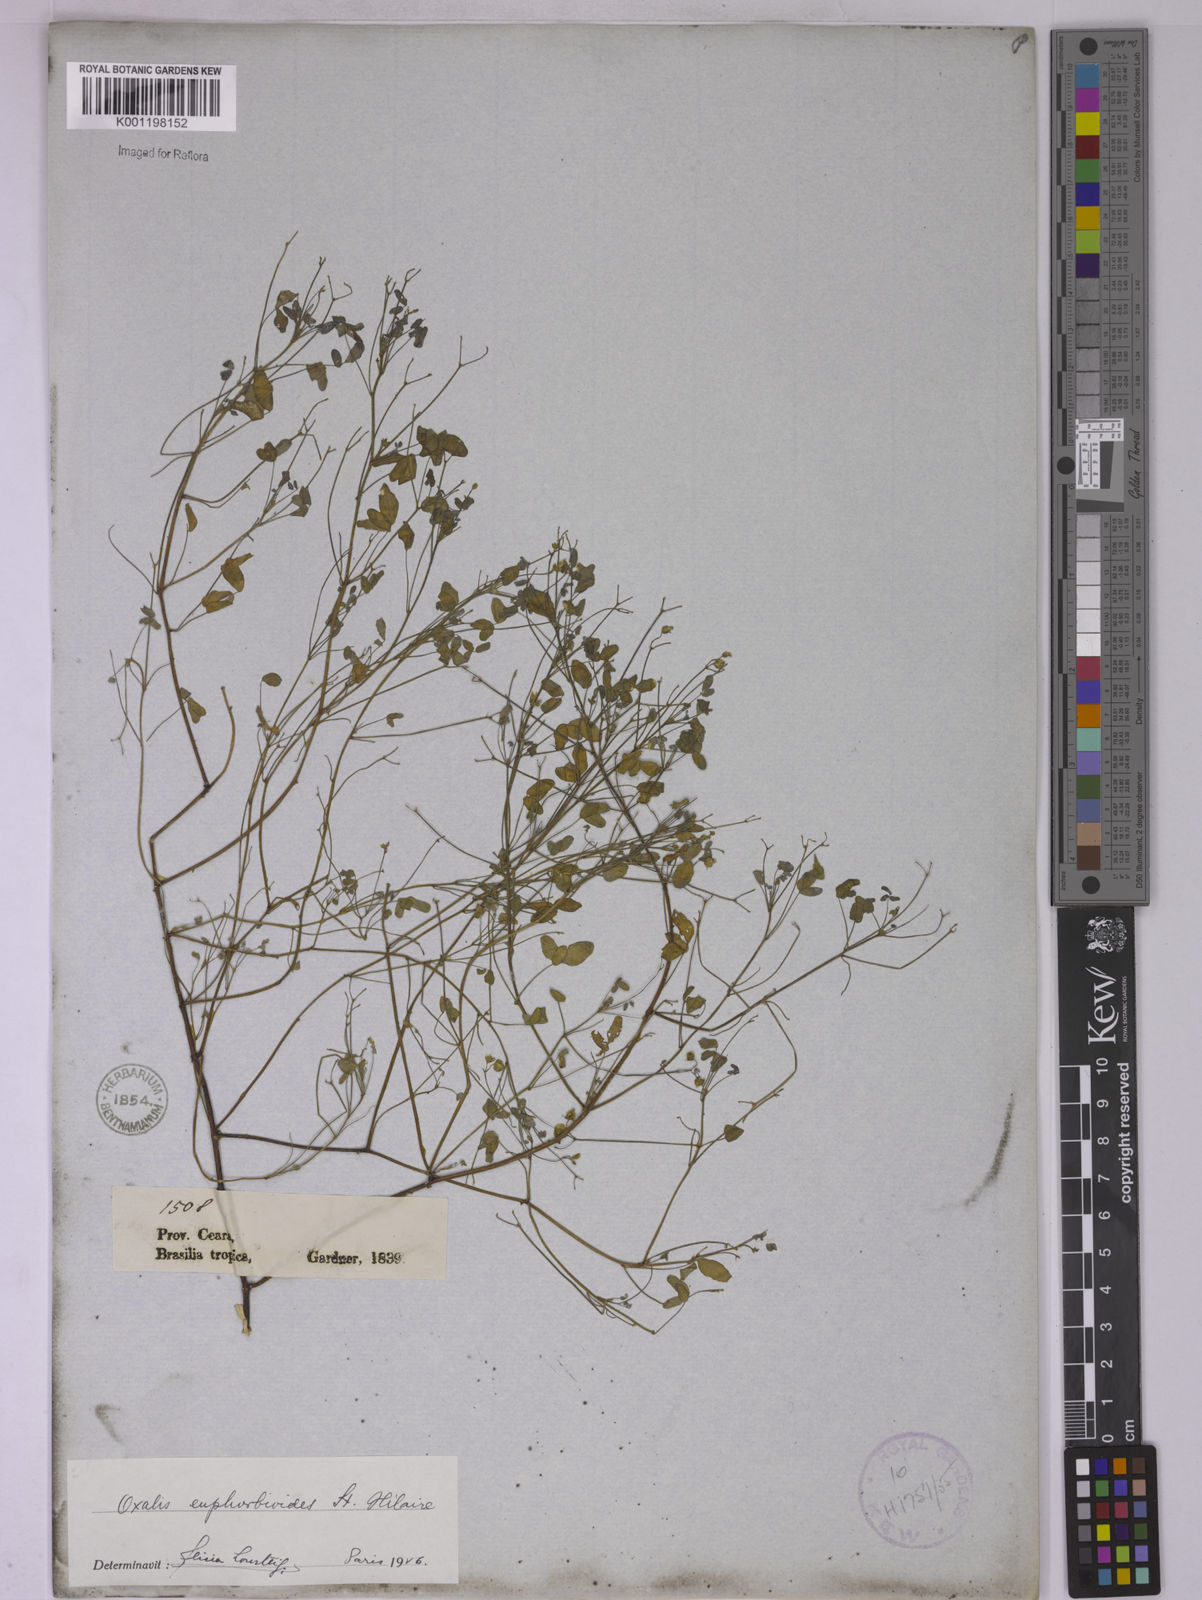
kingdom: Plantae
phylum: Tracheophyta
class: Magnoliopsida
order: Oxalidales
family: Oxalidaceae
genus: Oxalis
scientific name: Oxalis divaricata
